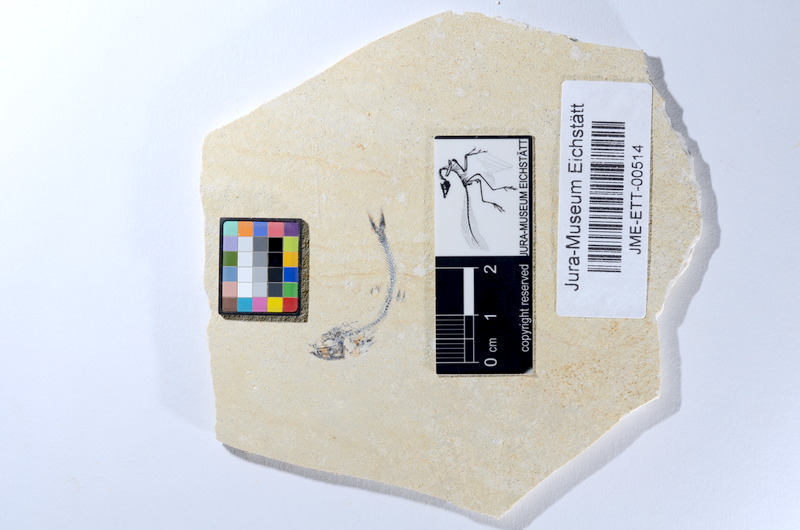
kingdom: Animalia
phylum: Chordata
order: Salmoniformes
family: Orthogonikleithridae
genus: Orthogonikleithrus
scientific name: Orthogonikleithrus hoelli
